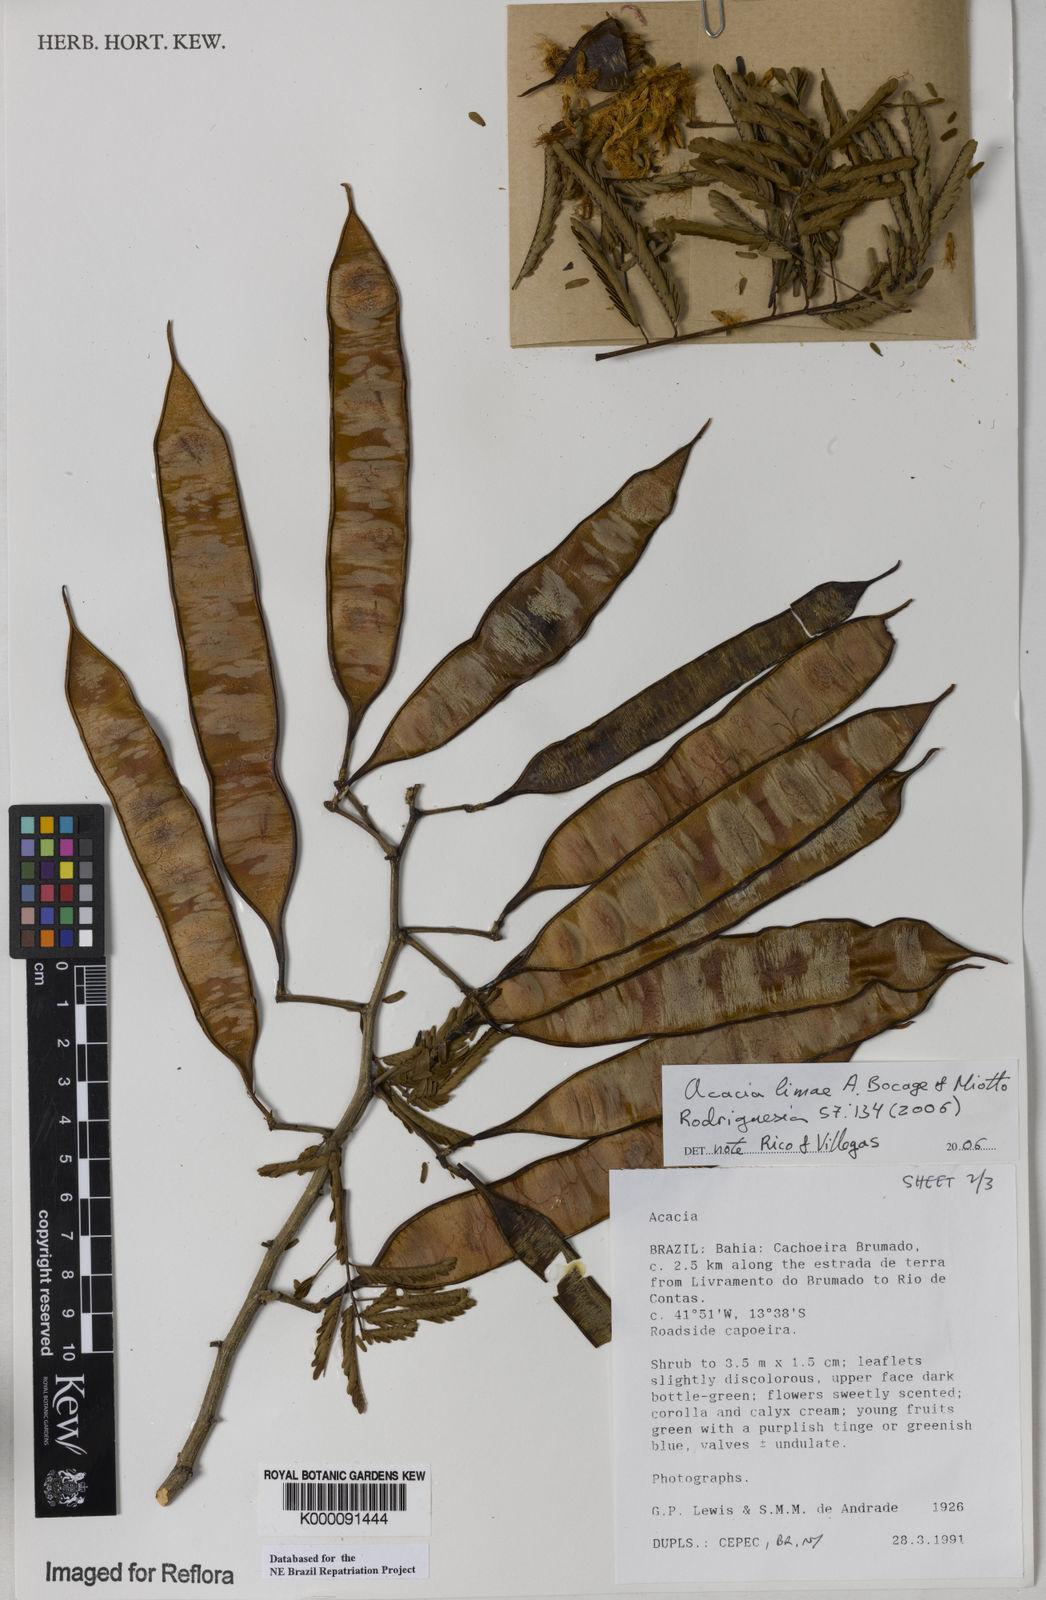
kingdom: Plantae
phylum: Tracheophyta
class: Magnoliopsida
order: Fabales
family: Fabaceae
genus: Senegalia
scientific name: Senegalia lasiophylla
